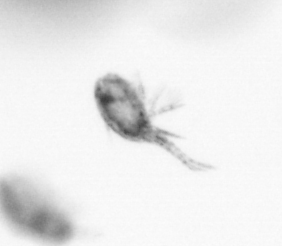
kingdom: Animalia
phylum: Arthropoda
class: Copepoda
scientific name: Copepoda
